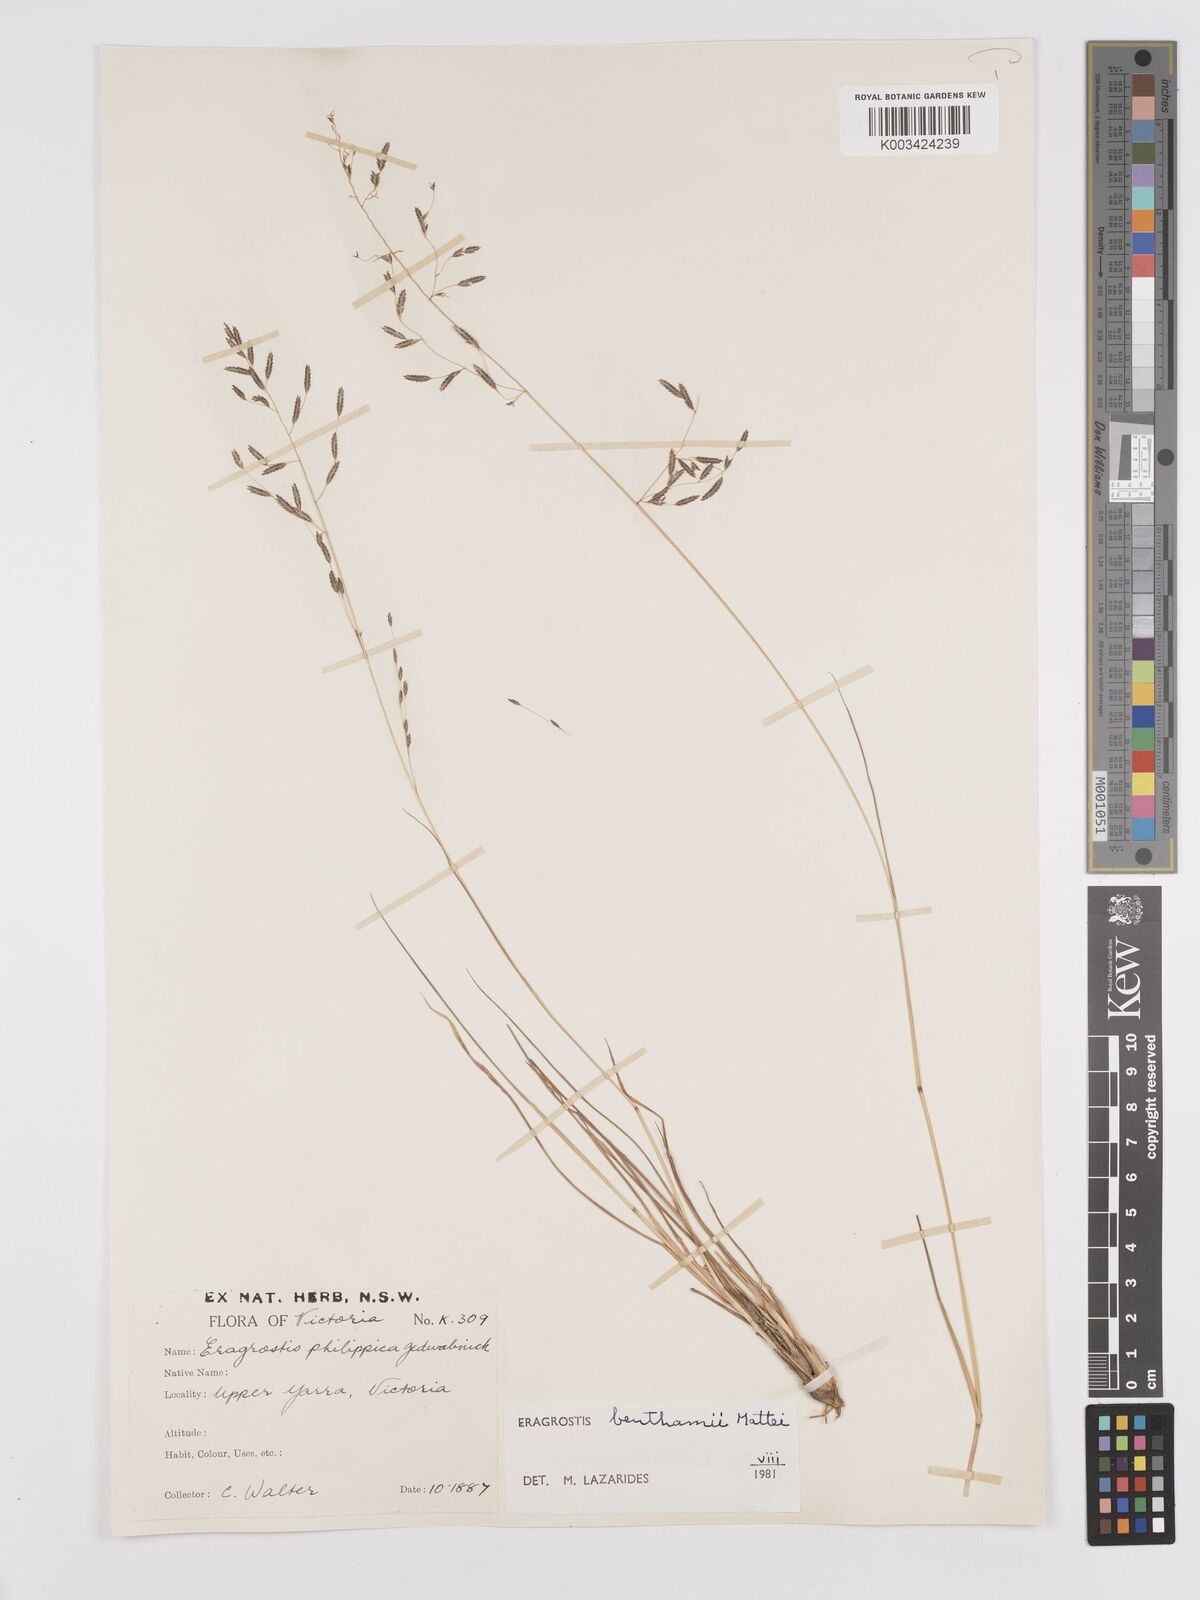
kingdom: Plantae
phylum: Tracheophyta
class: Liliopsida
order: Poales
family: Poaceae
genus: Eragrostis
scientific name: Eragrostis brownii
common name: Lovegrass
